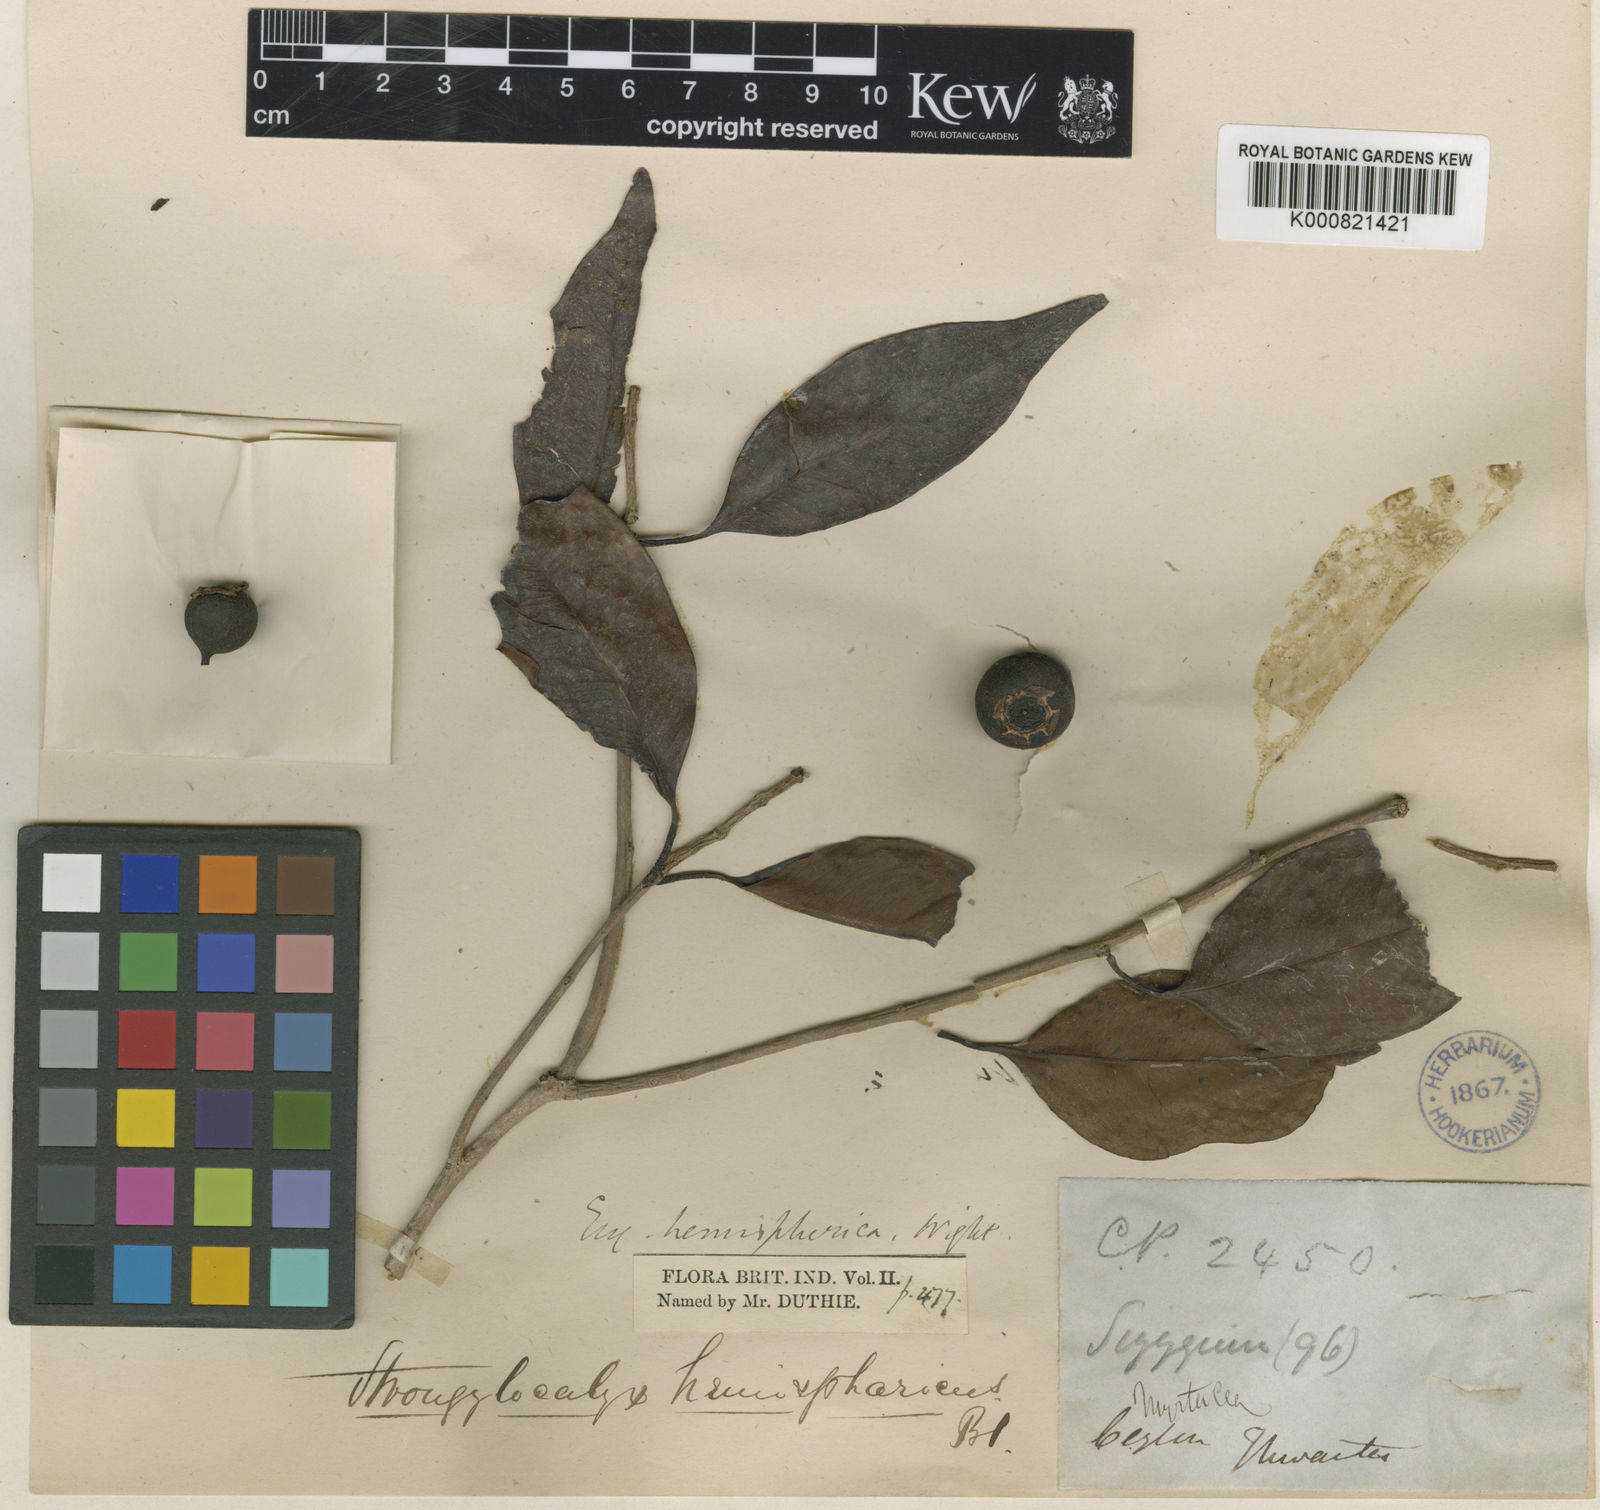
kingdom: Plantae
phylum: Tracheophyta
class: Magnoliopsida
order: Myrtales
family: Myrtaceae
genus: Syzygium
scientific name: Syzygium turbinatum
